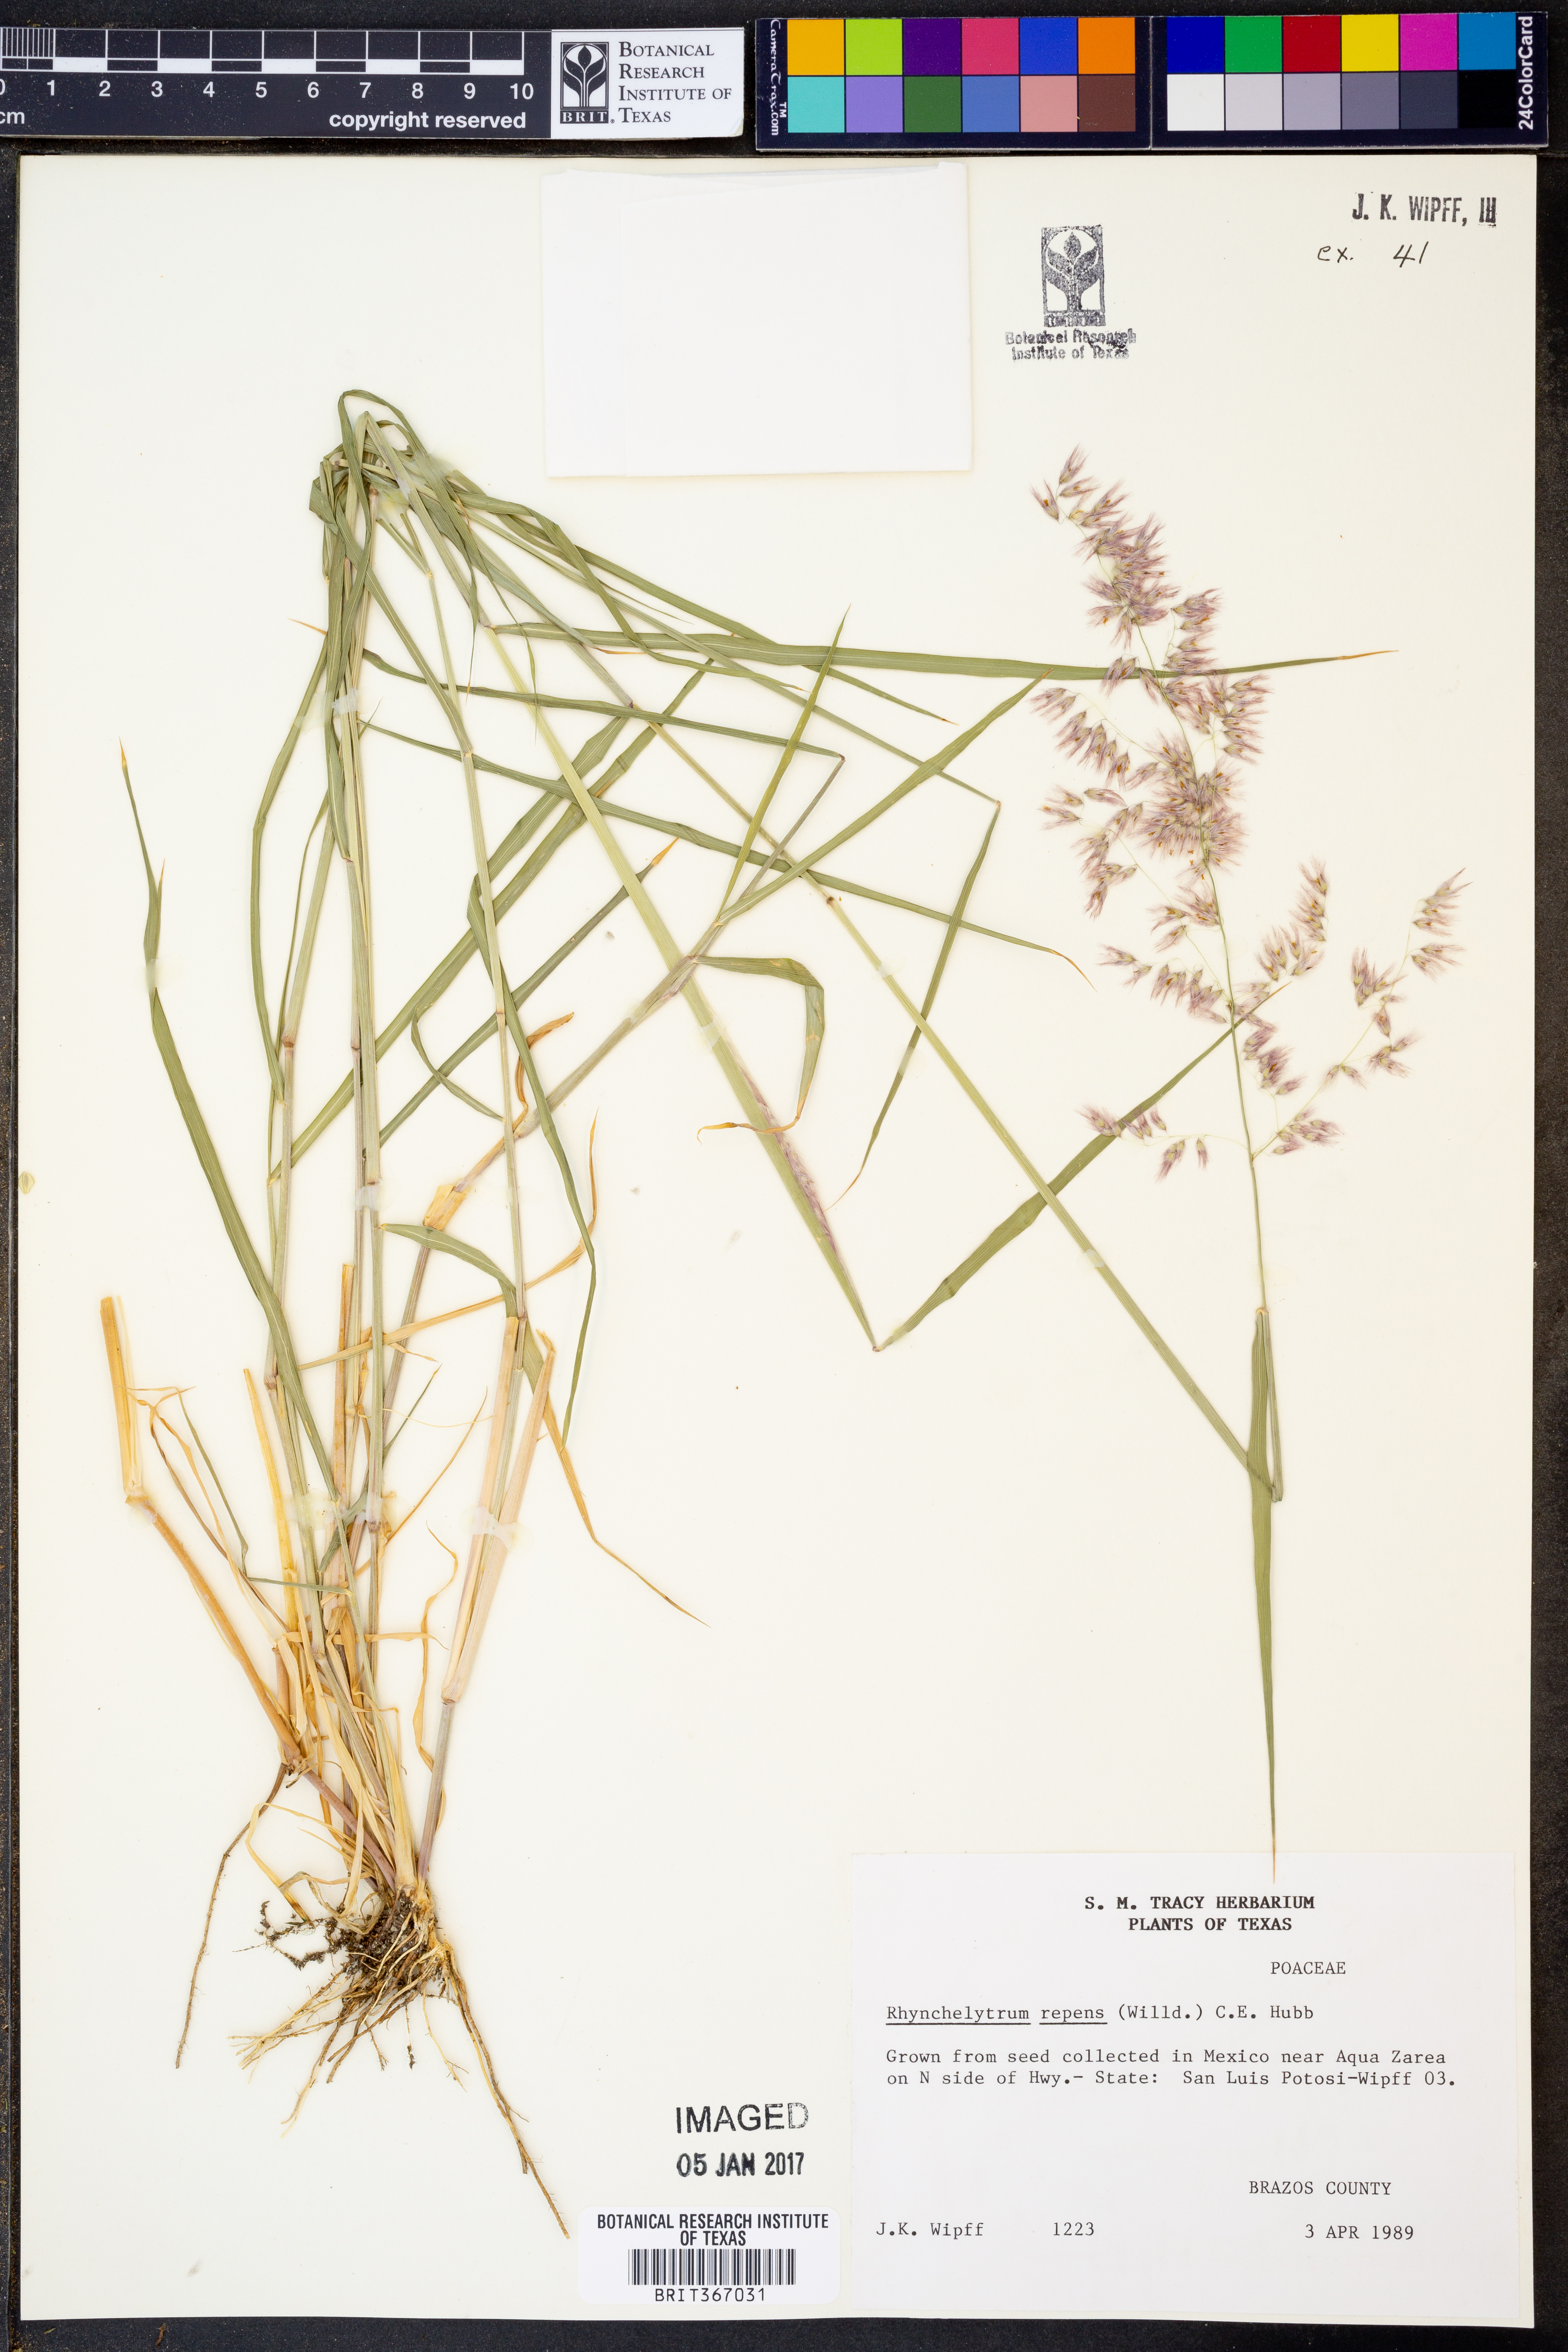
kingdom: Plantae
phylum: Tracheophyta
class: Liliopsida
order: Poales
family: Poaceae
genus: Melinis
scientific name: Melinis repens
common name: Rose natal grass
